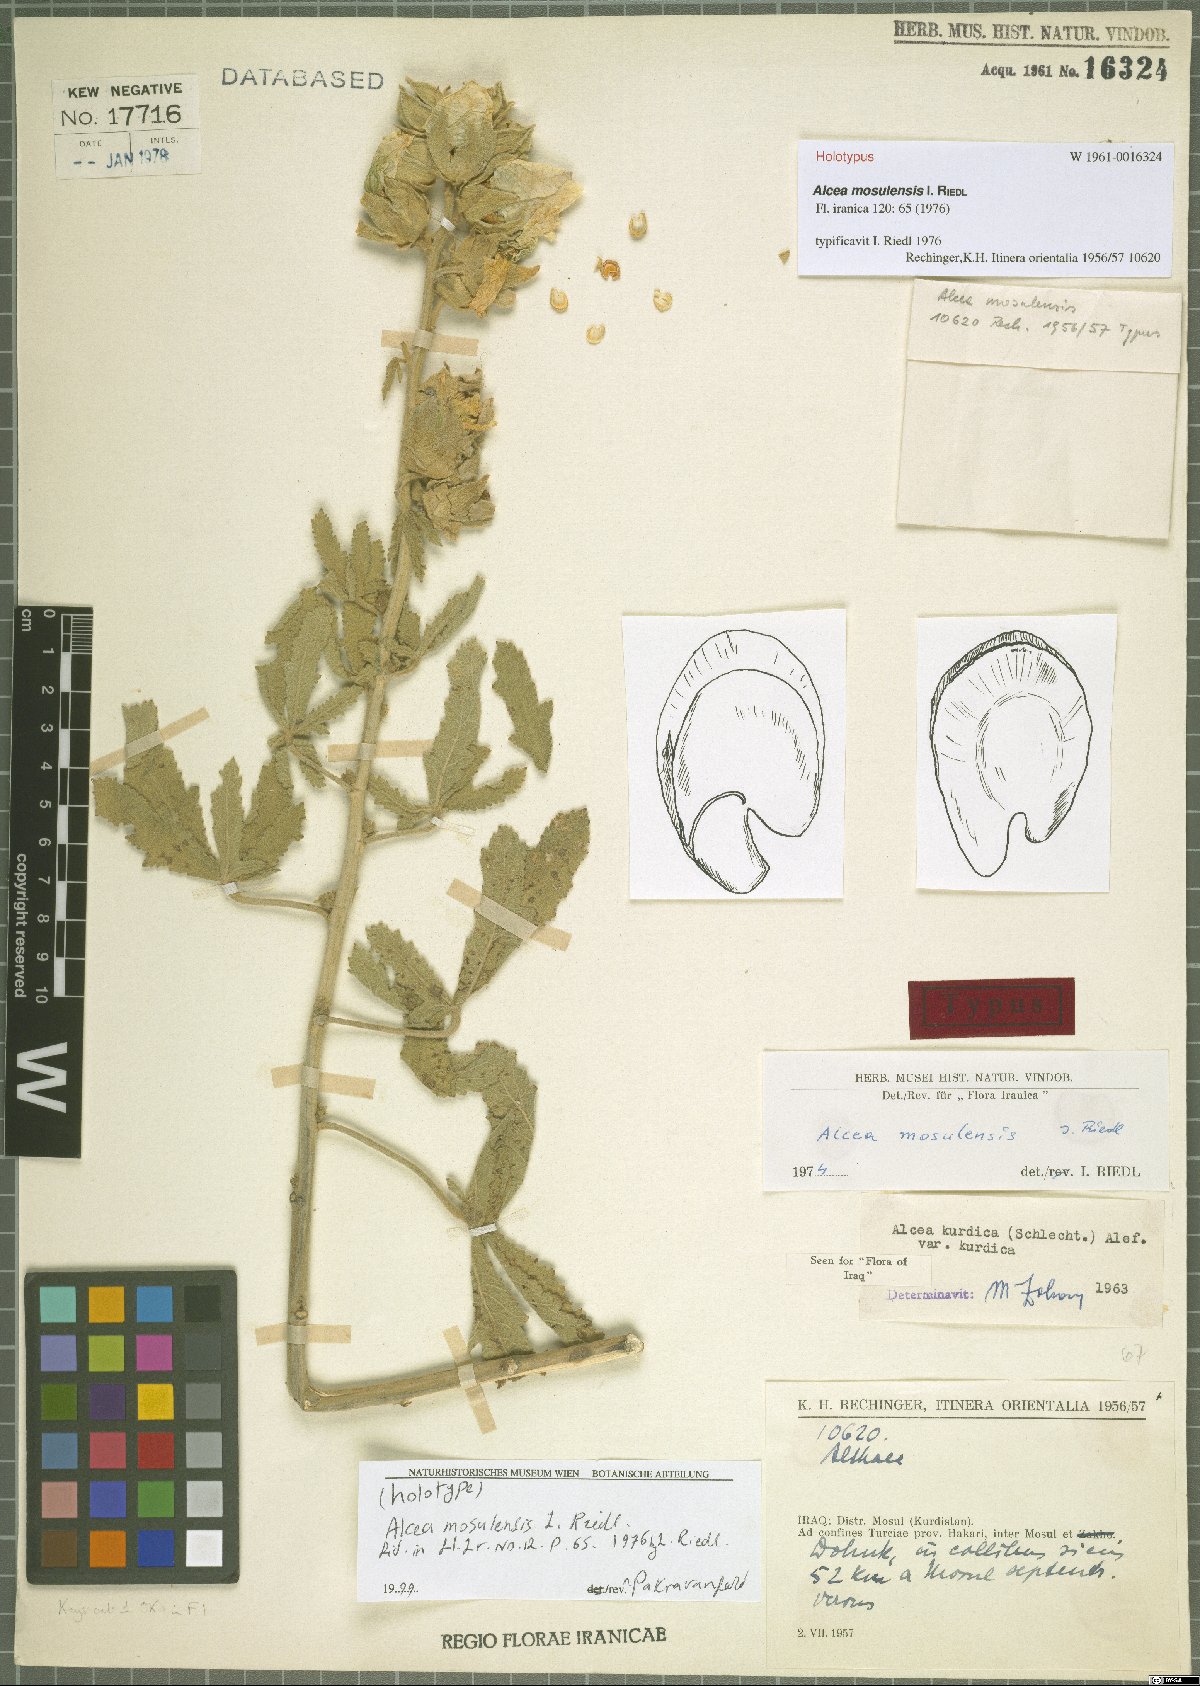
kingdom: Plantae
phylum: Tracheophyta
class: Magnoliopsida
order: Malvales
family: Malvaceae
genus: Alcea
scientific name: Alcea kurdica
